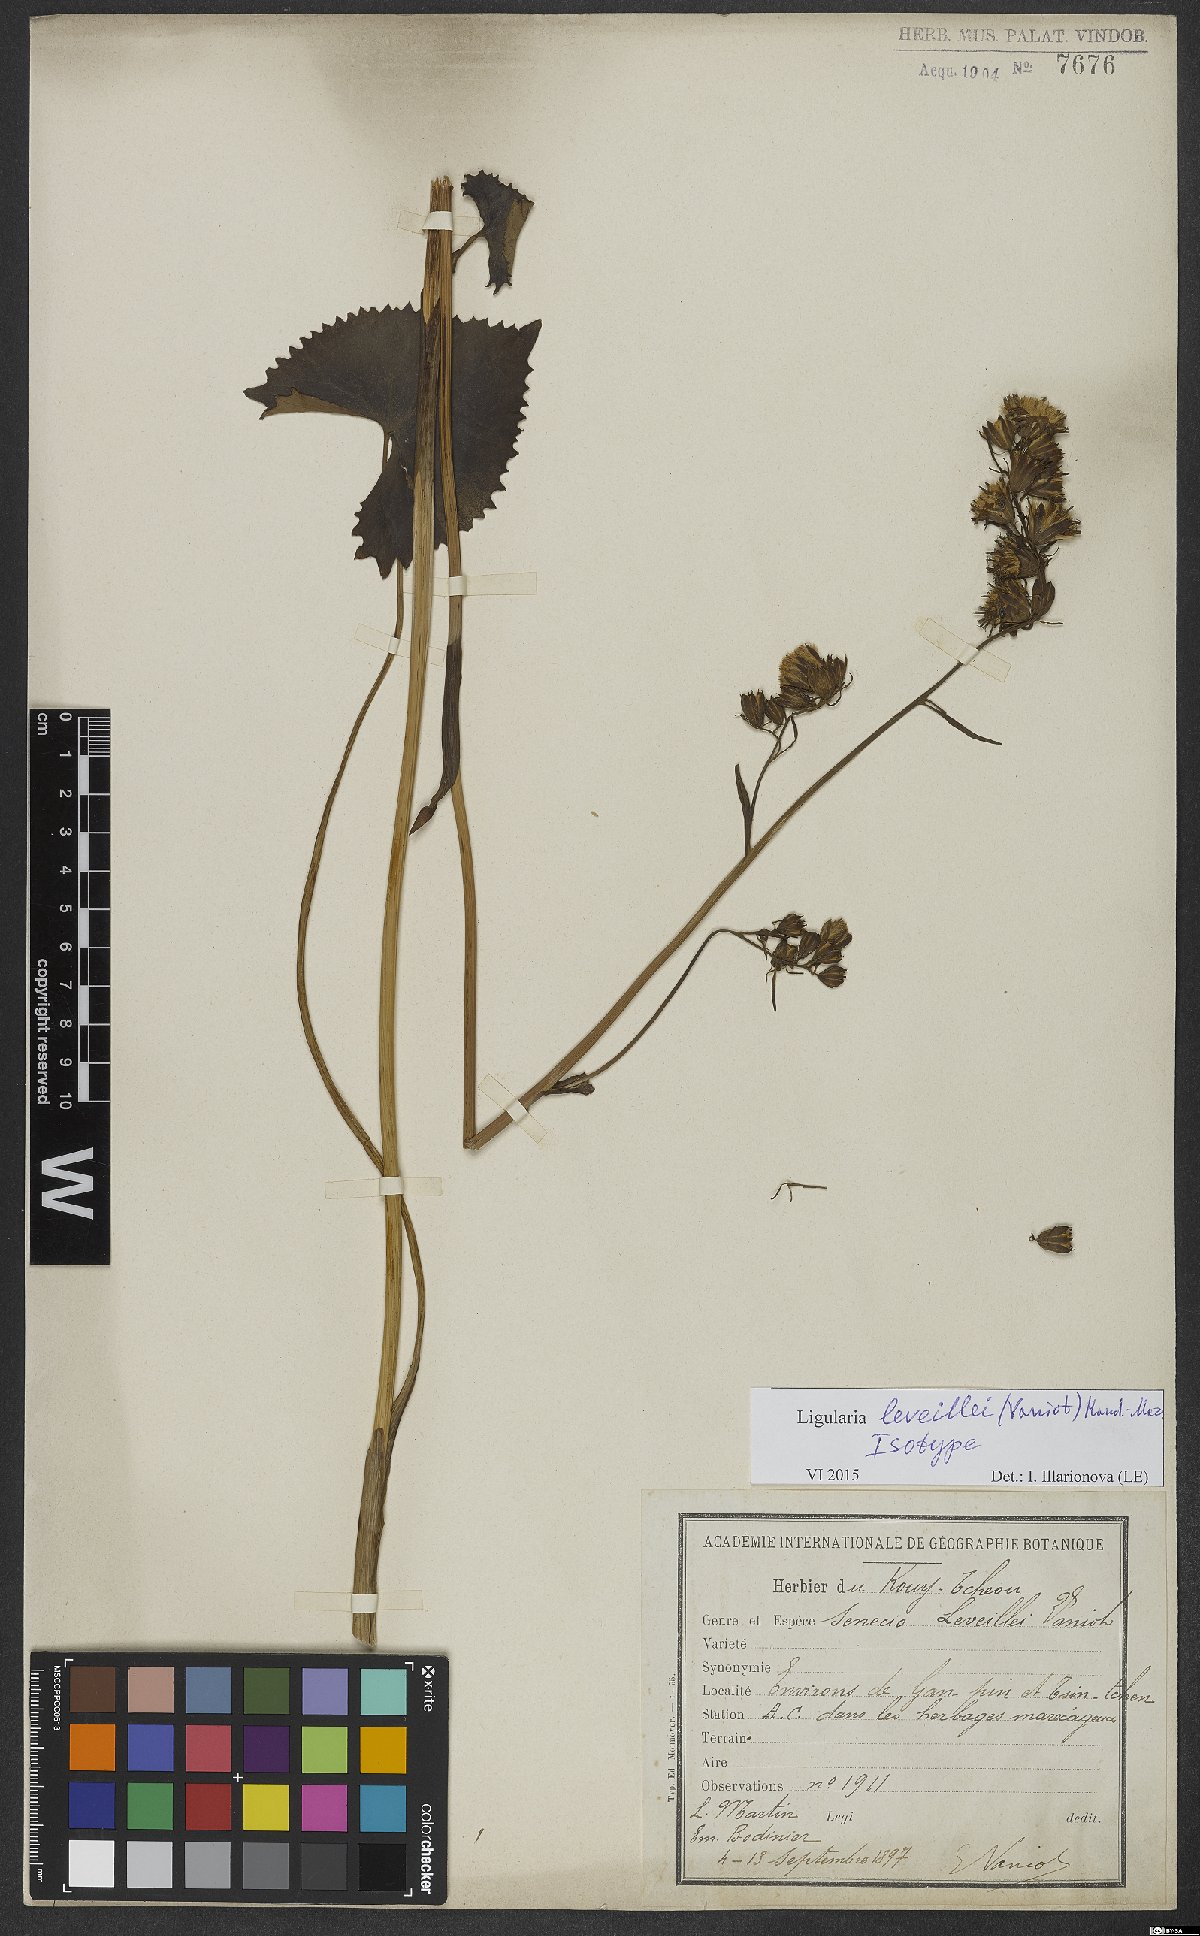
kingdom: Plantae
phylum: Tracheophyta
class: Magnoliopsida
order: Asterales
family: Asteraceae
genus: Ligularia
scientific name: Ligularia leveillei
